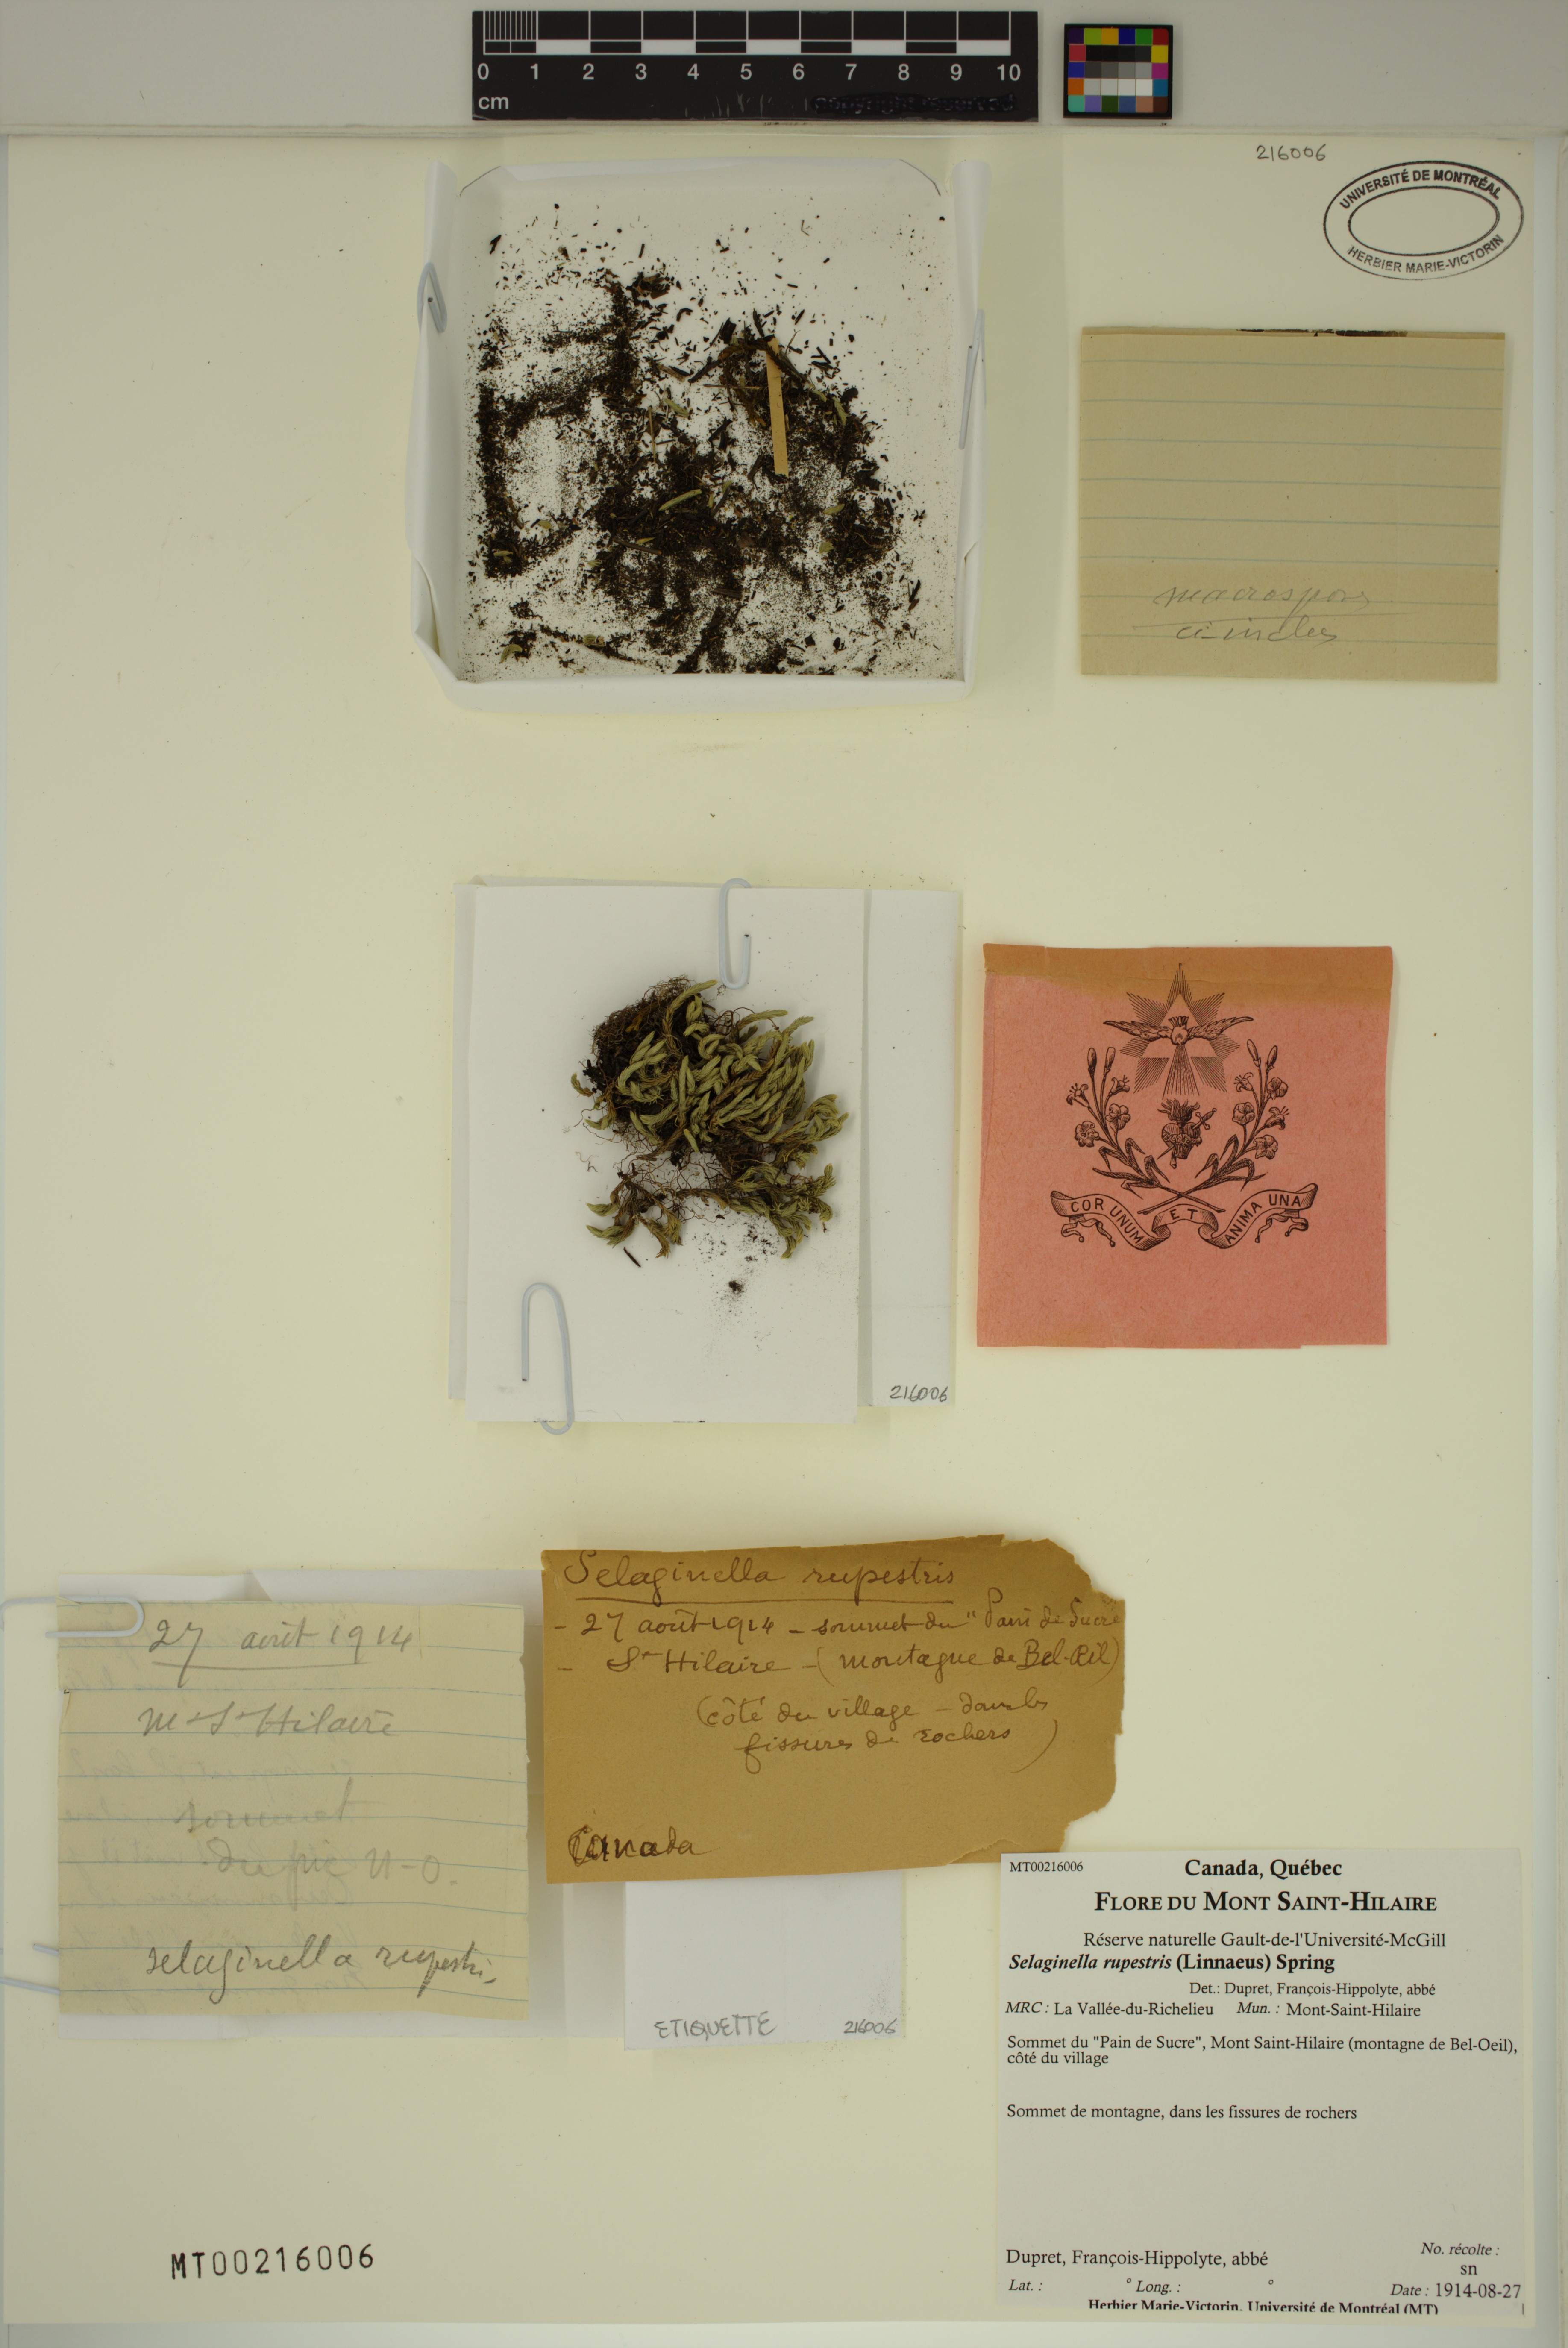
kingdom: Plantae
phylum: Tracheophyta
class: Lycopodiopsida
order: Selaginellales
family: Selaginellaceae
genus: Selaginella
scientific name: Selaginella rupestris
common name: Dwarf spikemoss
